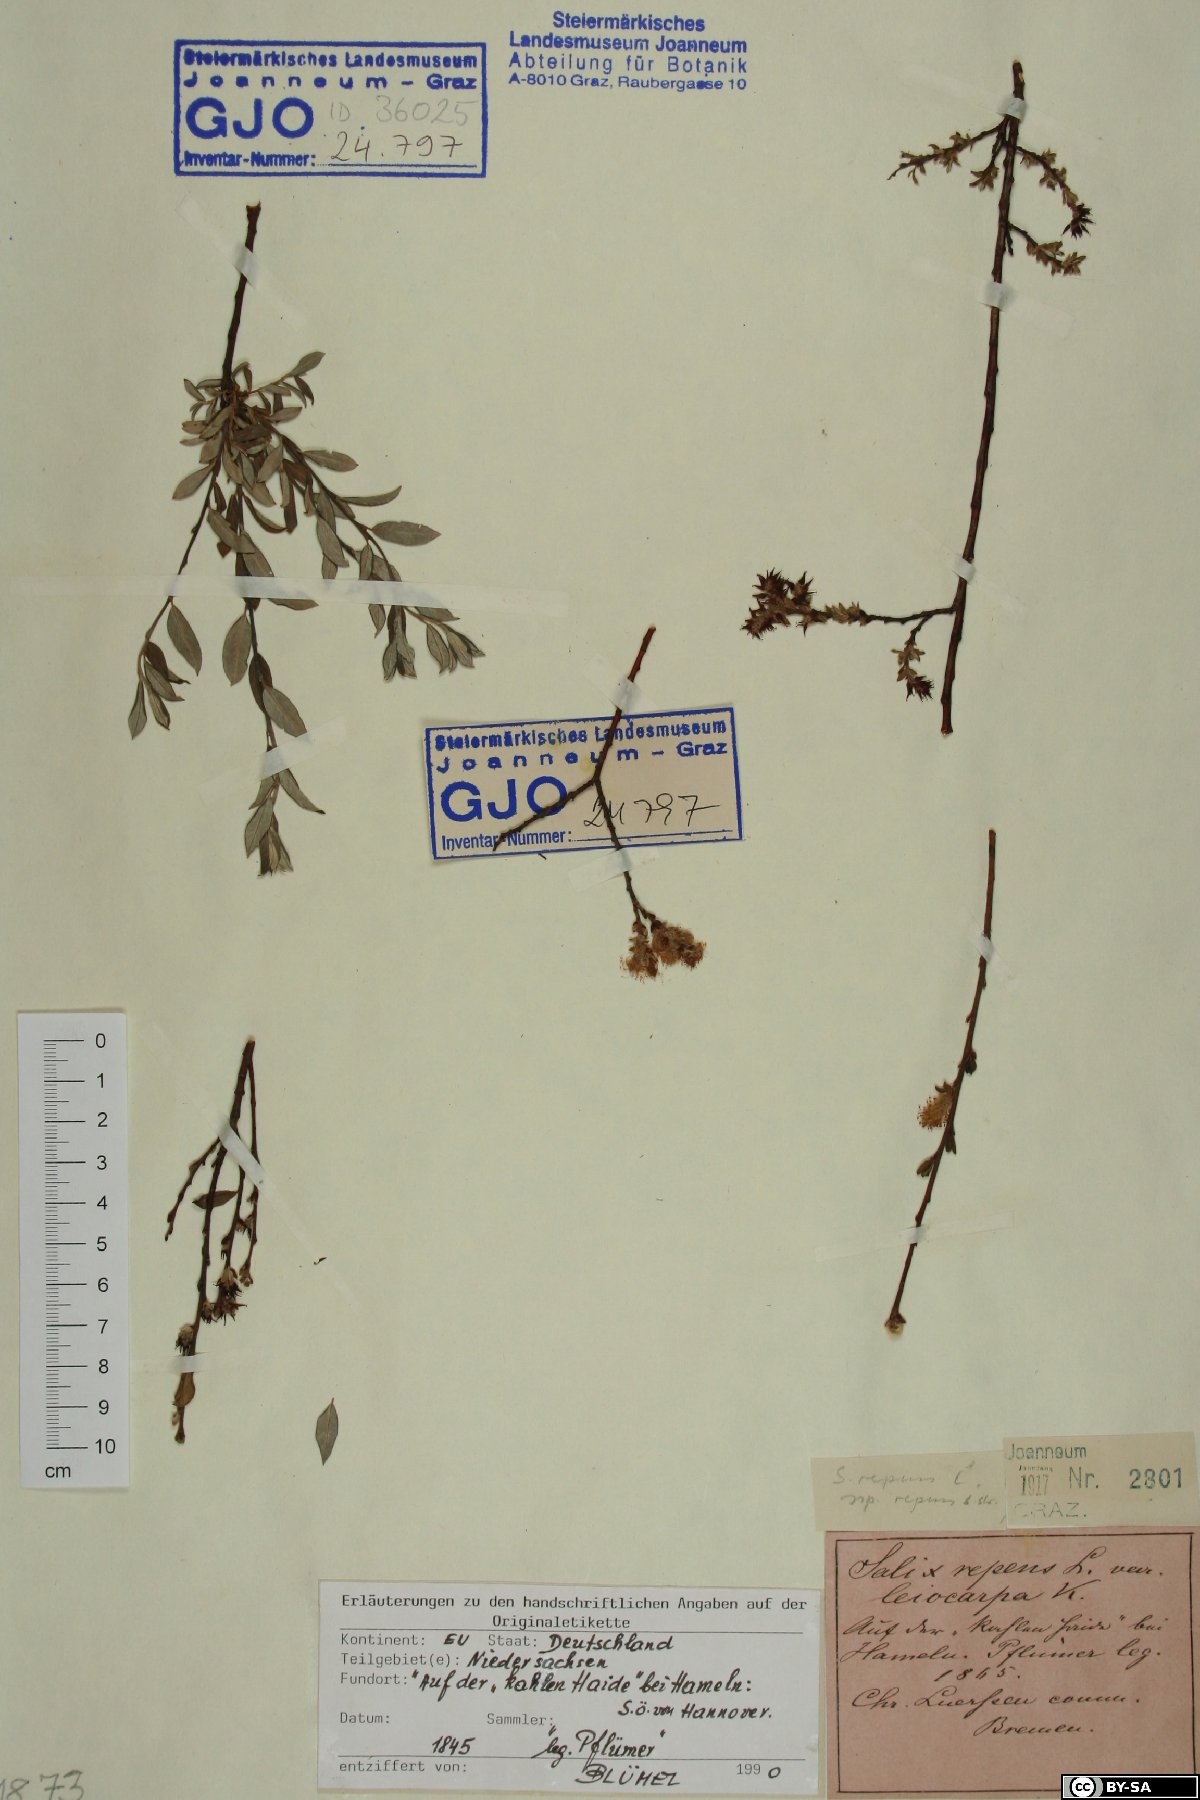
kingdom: Plantae
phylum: Tracheophyta
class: Magnoliopsida
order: Malpighiales
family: Salicaceae
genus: Salix
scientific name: Salix repens
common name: Creeping willow
